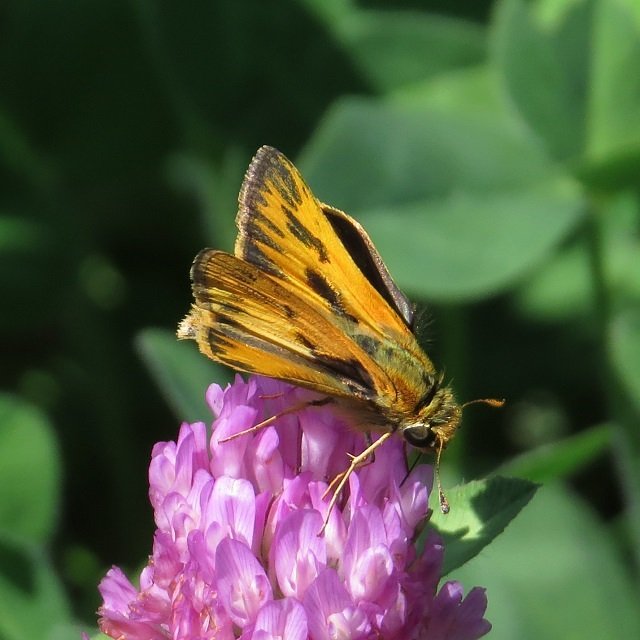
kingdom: Animalia
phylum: Arthropoda
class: Insecta
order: Lepidoptera
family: Hesperiidae
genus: Hylephila
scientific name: Hylephila phyleus
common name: Fiery Skipper
